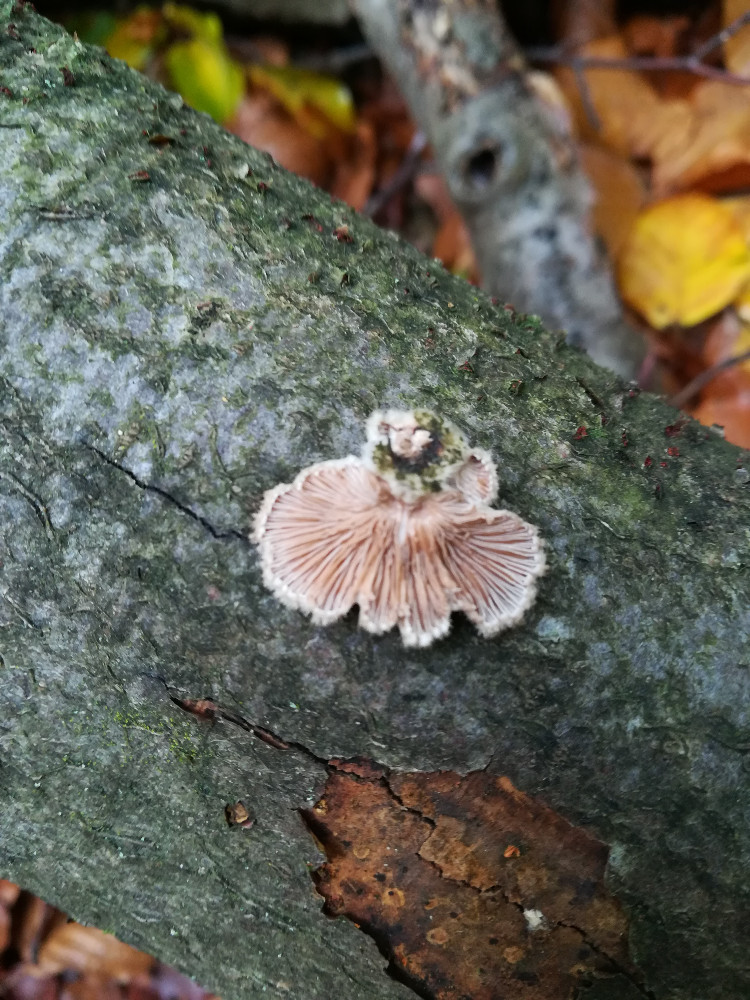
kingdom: Fungi
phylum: Basidiomycota
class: Agaricomycetes
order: Agaricales
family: Schizophyllaceae
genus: Schizophyllum
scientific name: Schizophyllum commune
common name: kløvblad
